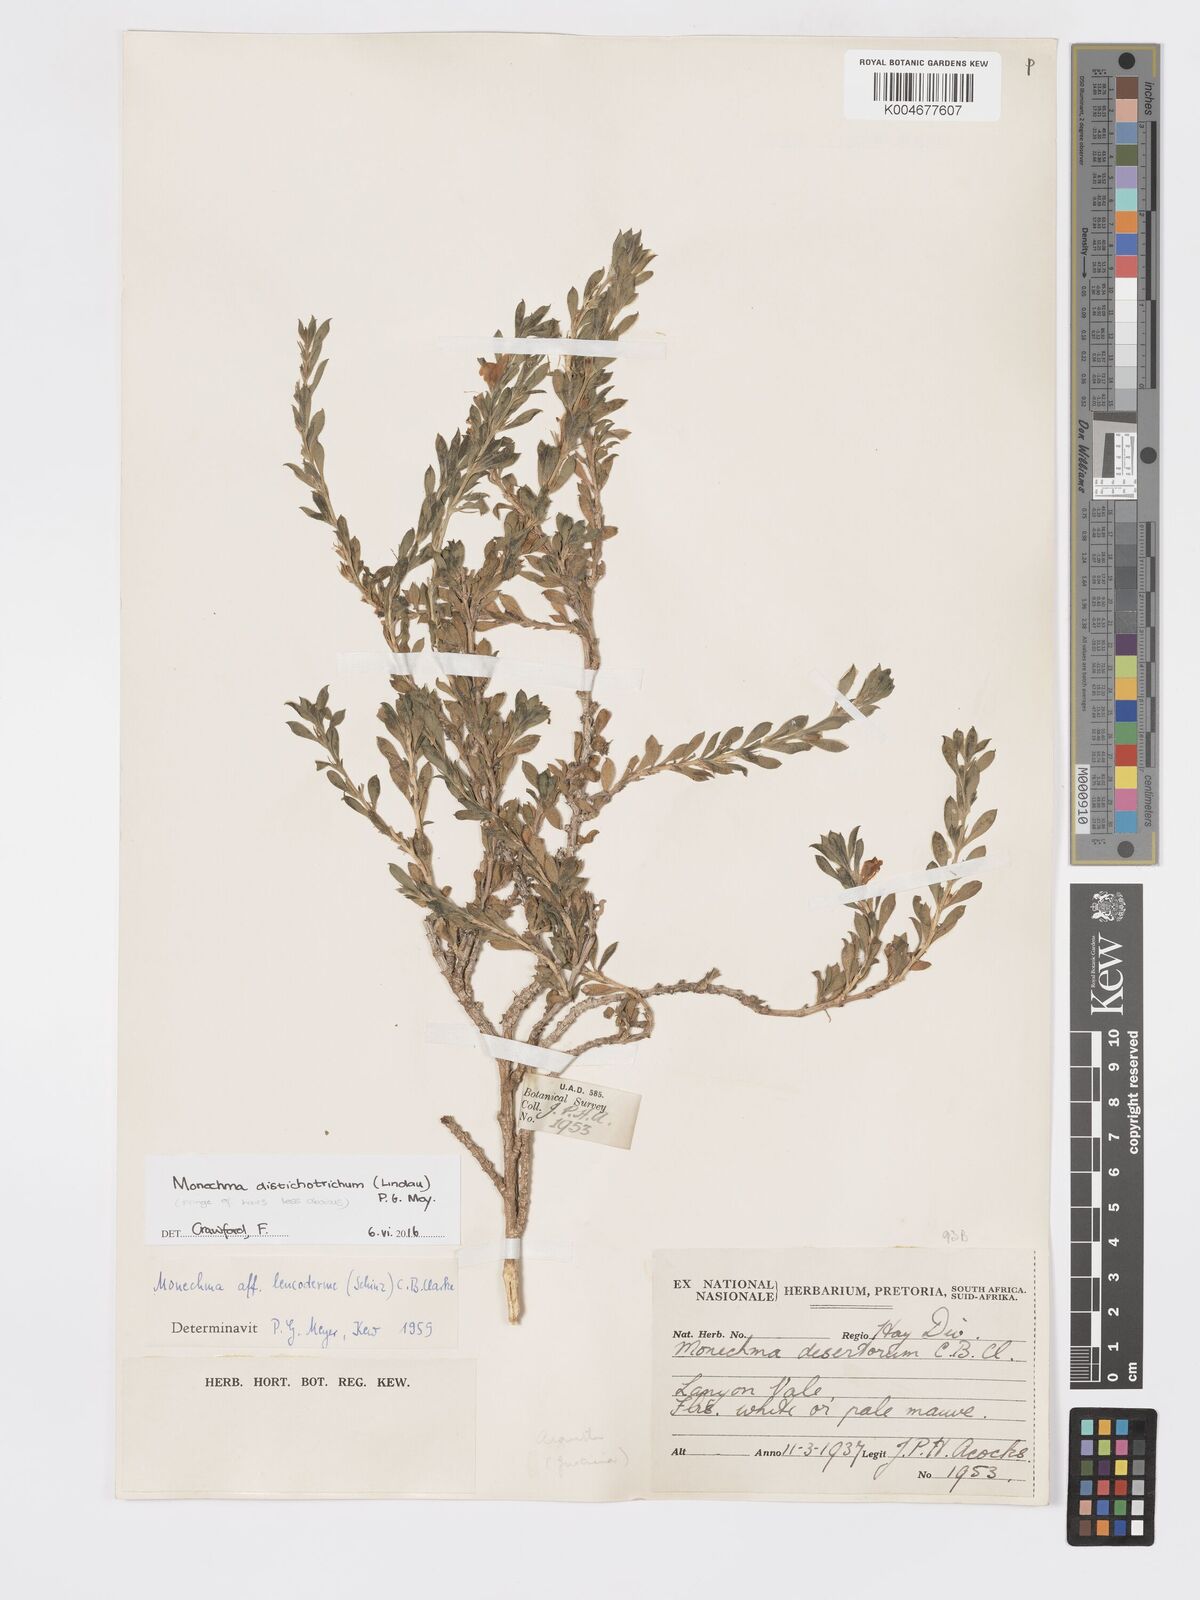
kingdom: Plantae
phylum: Tracheophyta
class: Magnoliopsida
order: Lamiales
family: Acanthaceae
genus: Pogonospermum
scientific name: Pogonospermum
